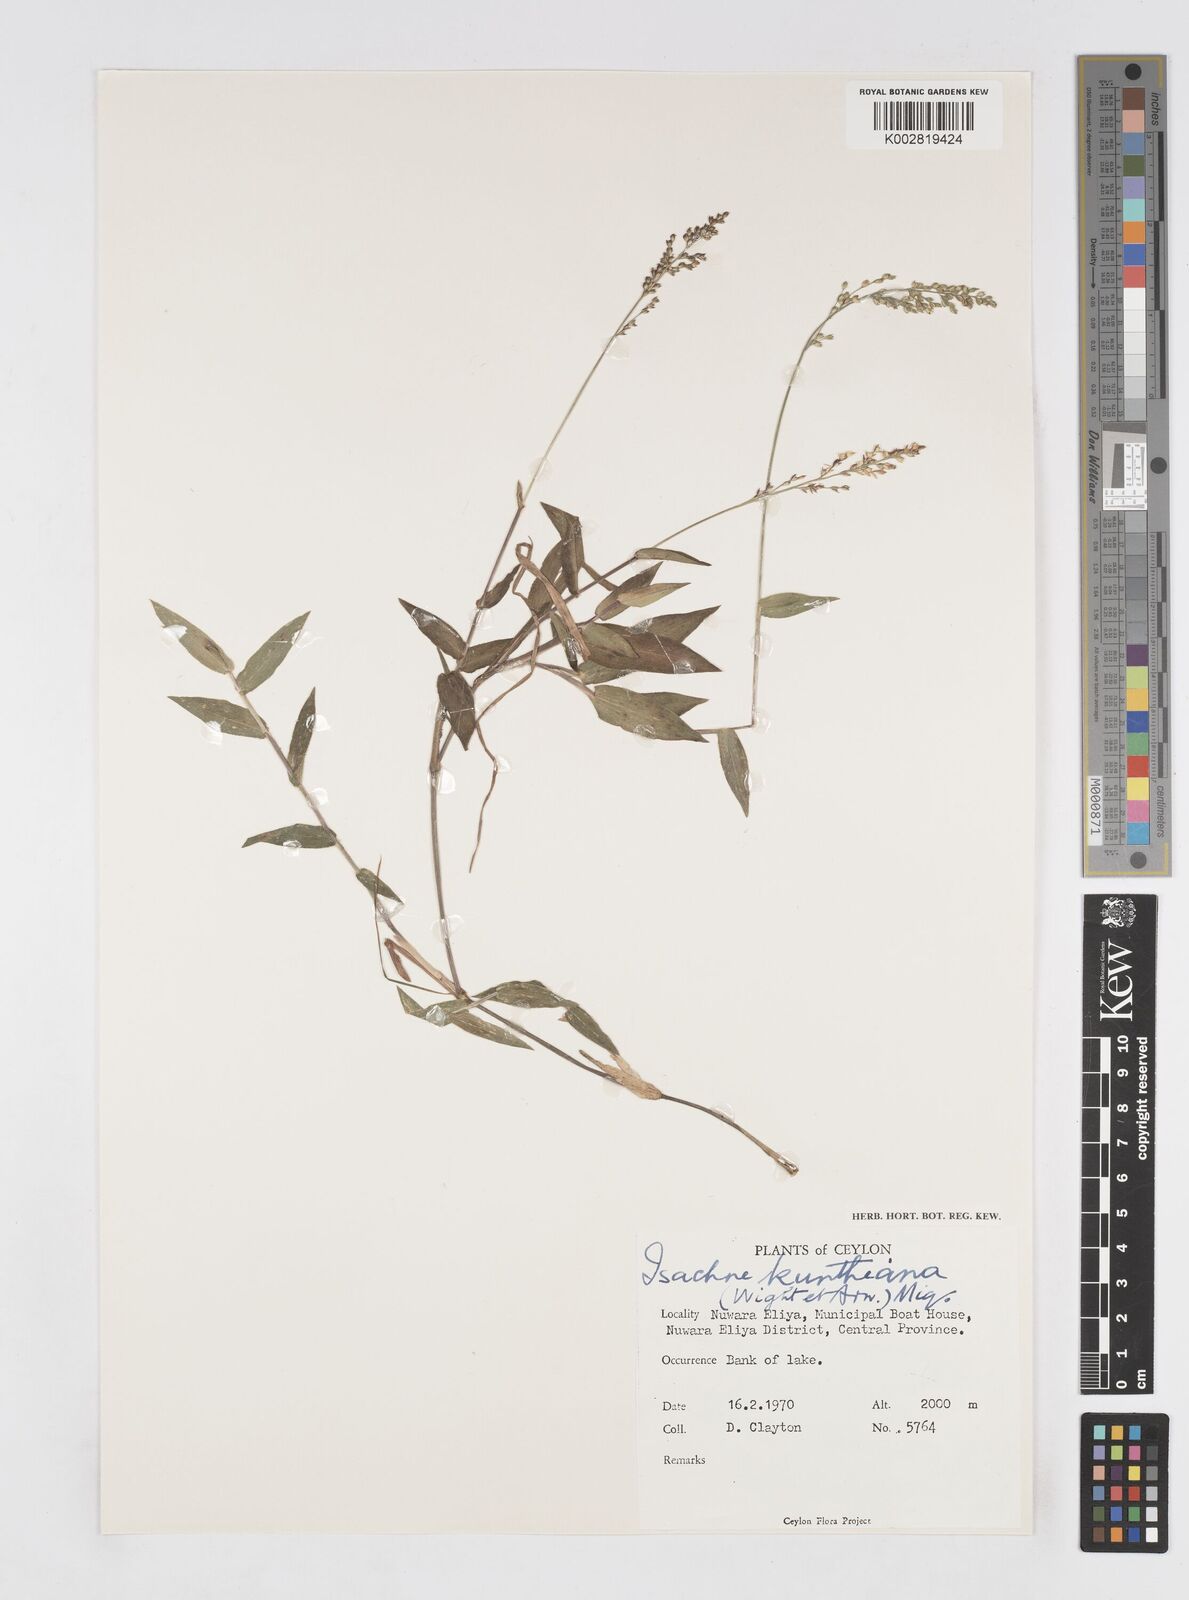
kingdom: Plantae
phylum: Tracheophyta
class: Liliopsida
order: Poales
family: Poaceae
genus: Isachne
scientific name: Isachne kunthiana
